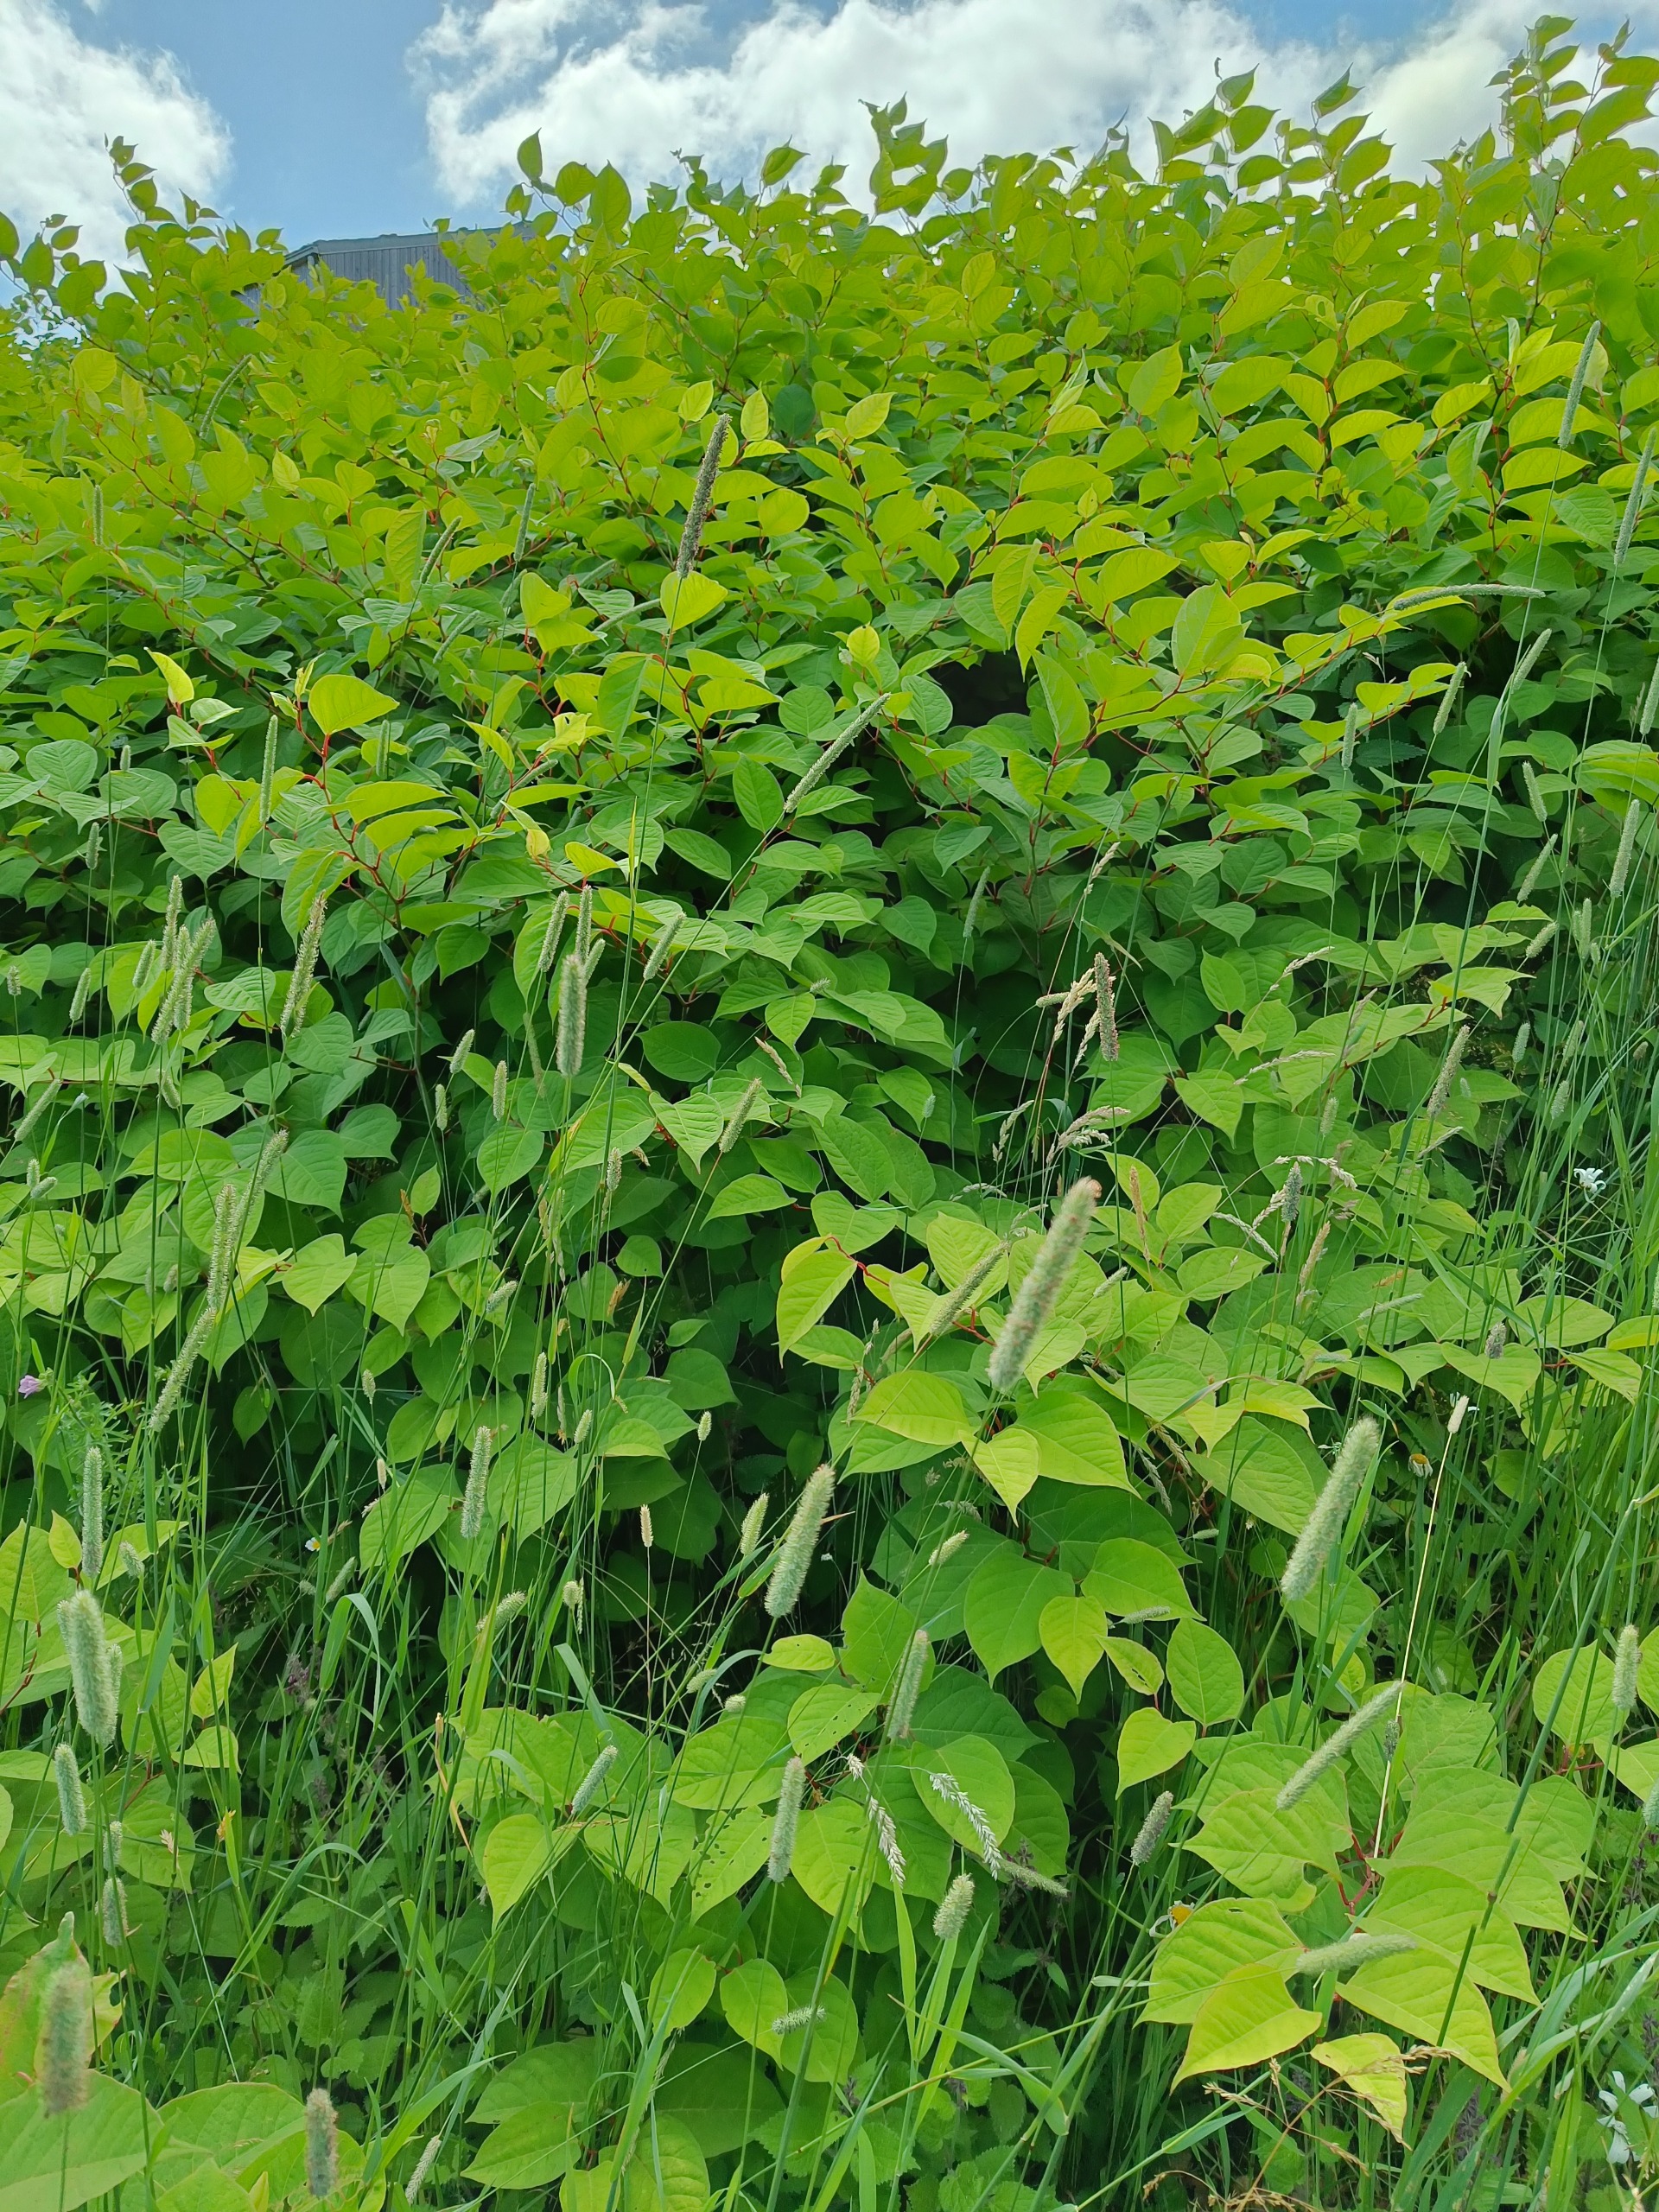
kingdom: Plantae
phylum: Tracheophyta
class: Magnoliopsida
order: Caryophyllales
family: Polygonaceae
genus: Reynoutria
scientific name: Reynoutria japonica
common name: Japan-pileurt
